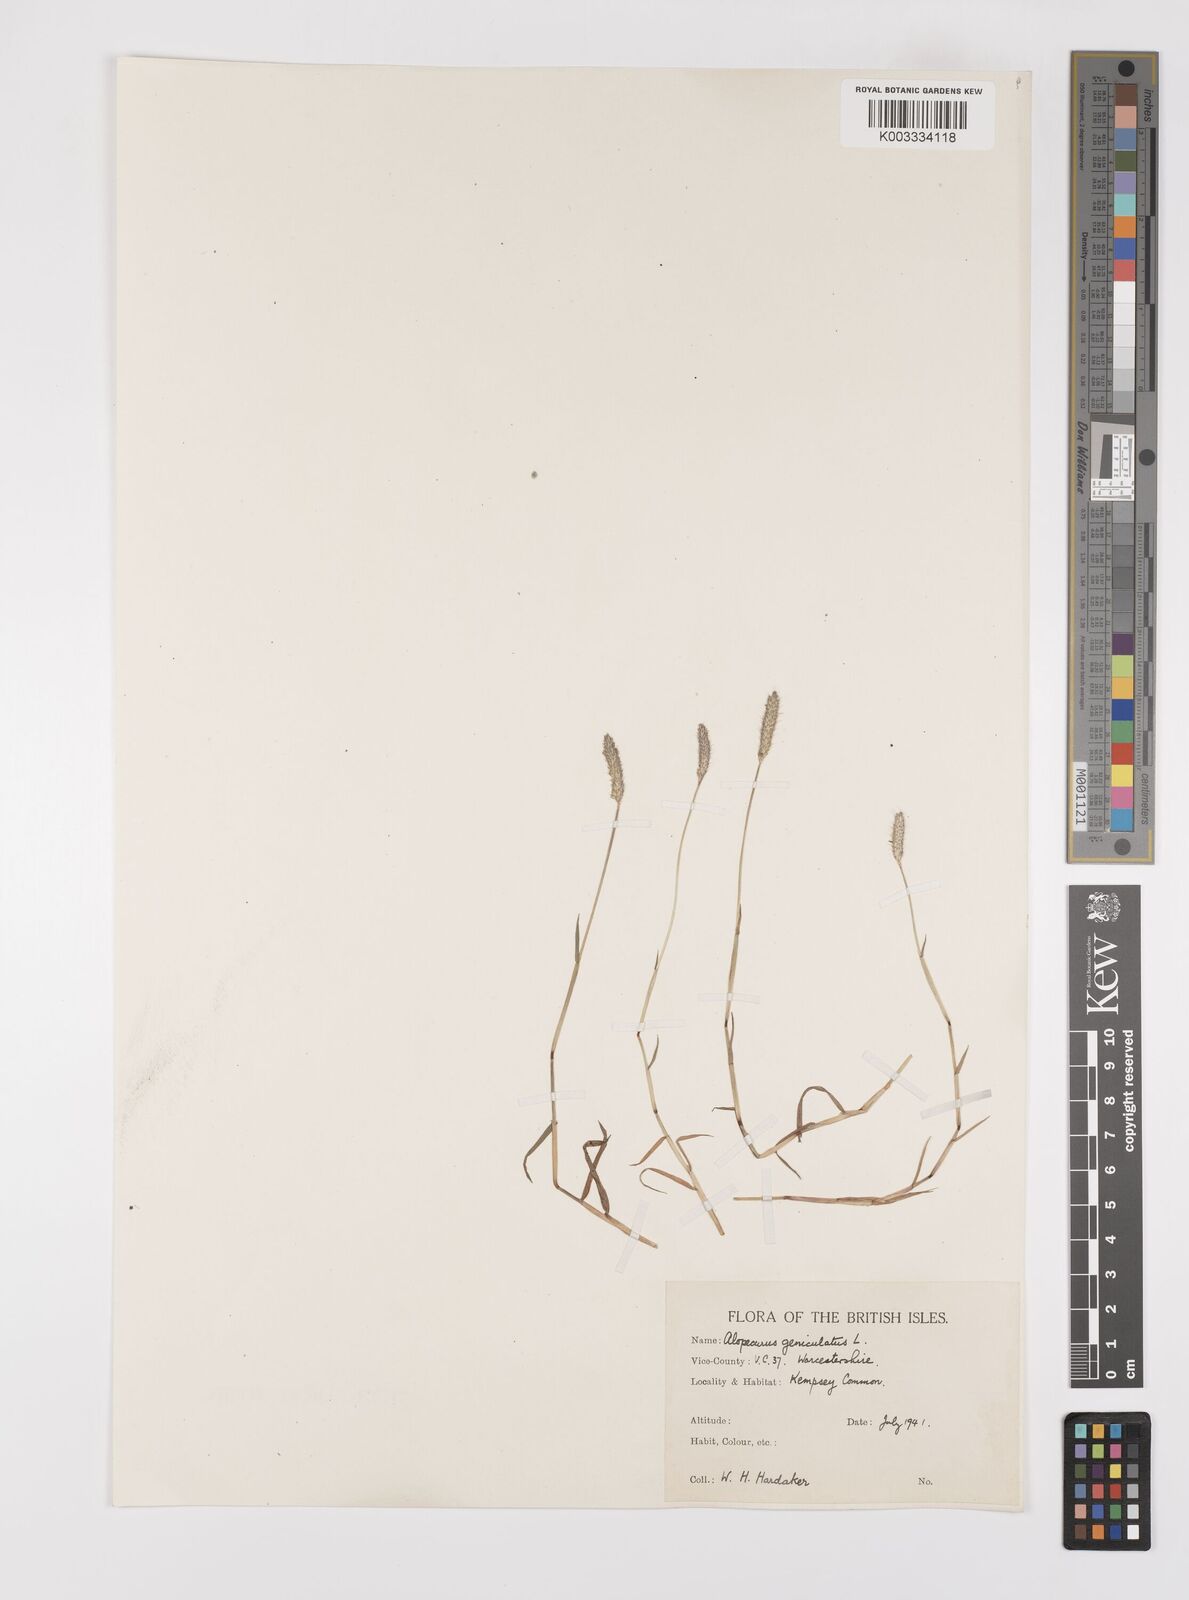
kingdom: Plantae
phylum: Tracheophyta
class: Liliopsida
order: Poales
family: Poaceae
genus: Alopecurus
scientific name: Alopecurus geniculatus
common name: Water foxtail
